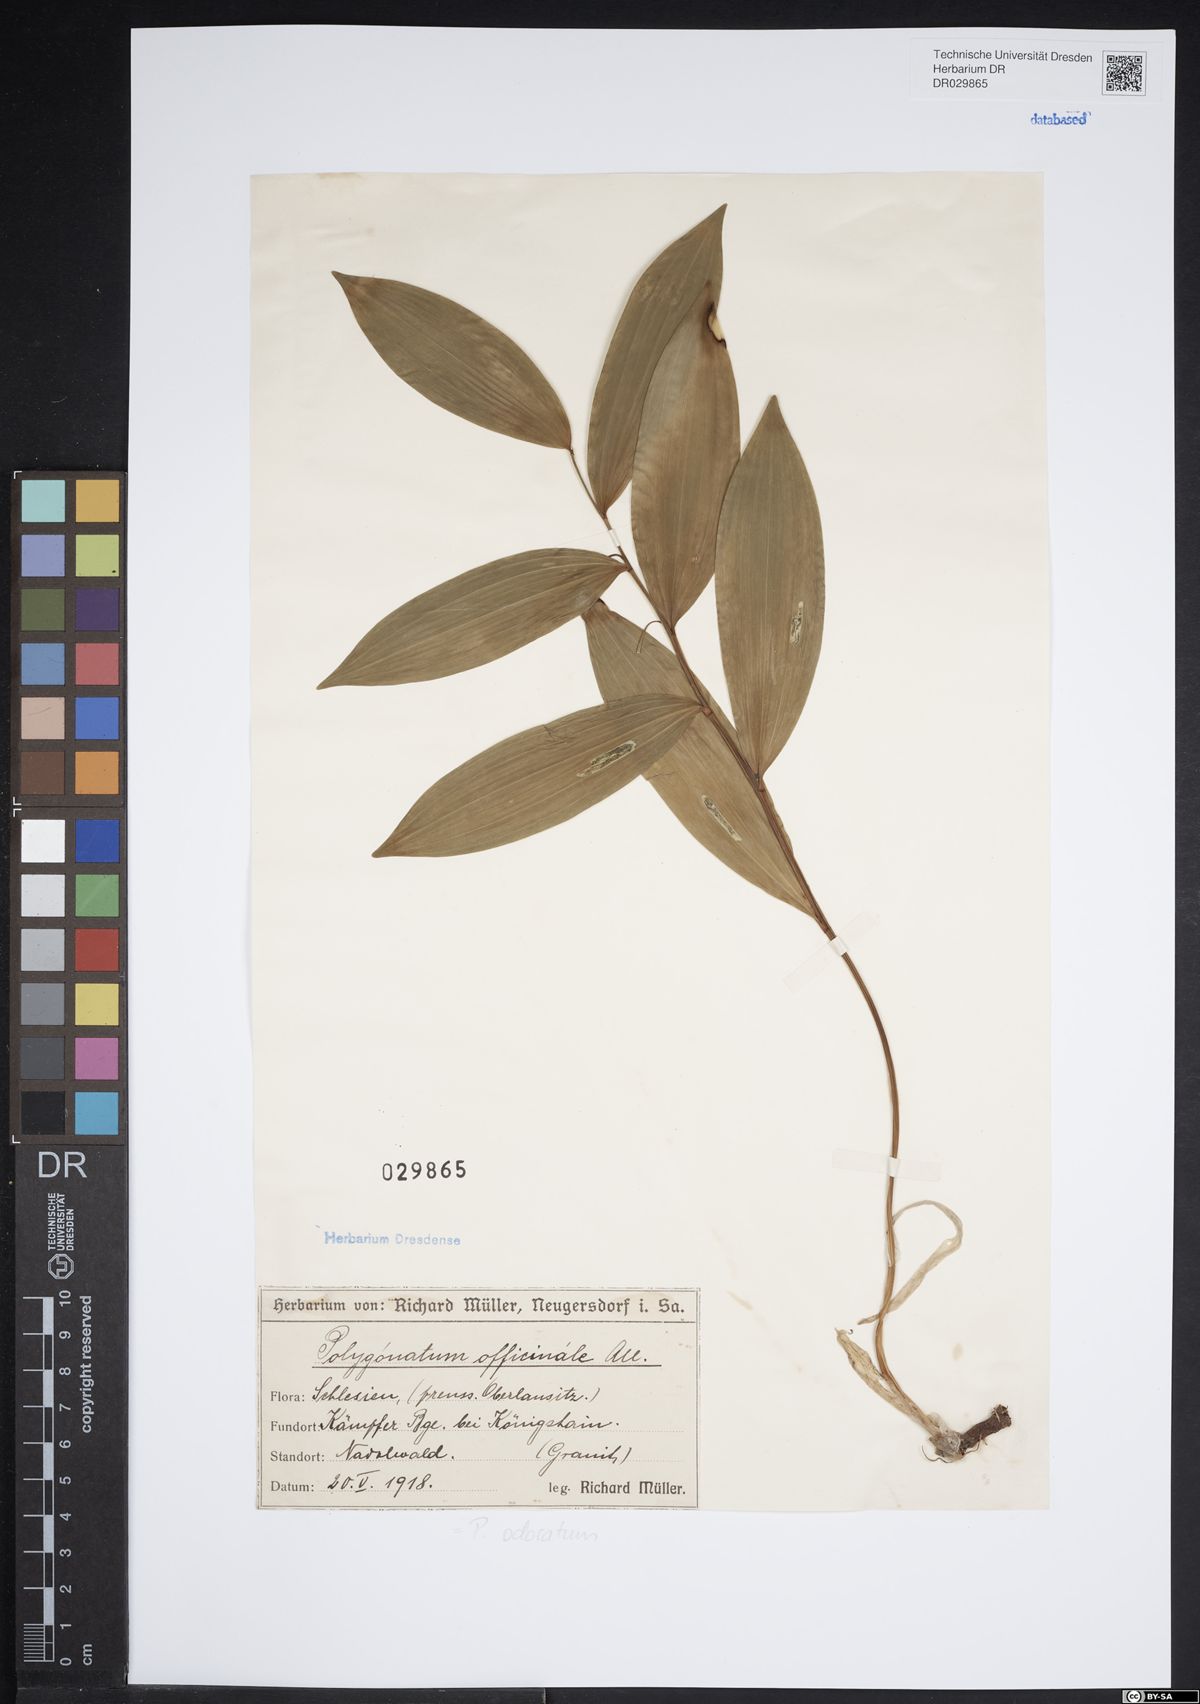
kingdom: Plantae
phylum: Tracheophyta
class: Liliopsida
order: Asparagales
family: Asparagaceae
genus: Polygonatum
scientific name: Polygonatum odoratum
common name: Angular solomon's-seal
